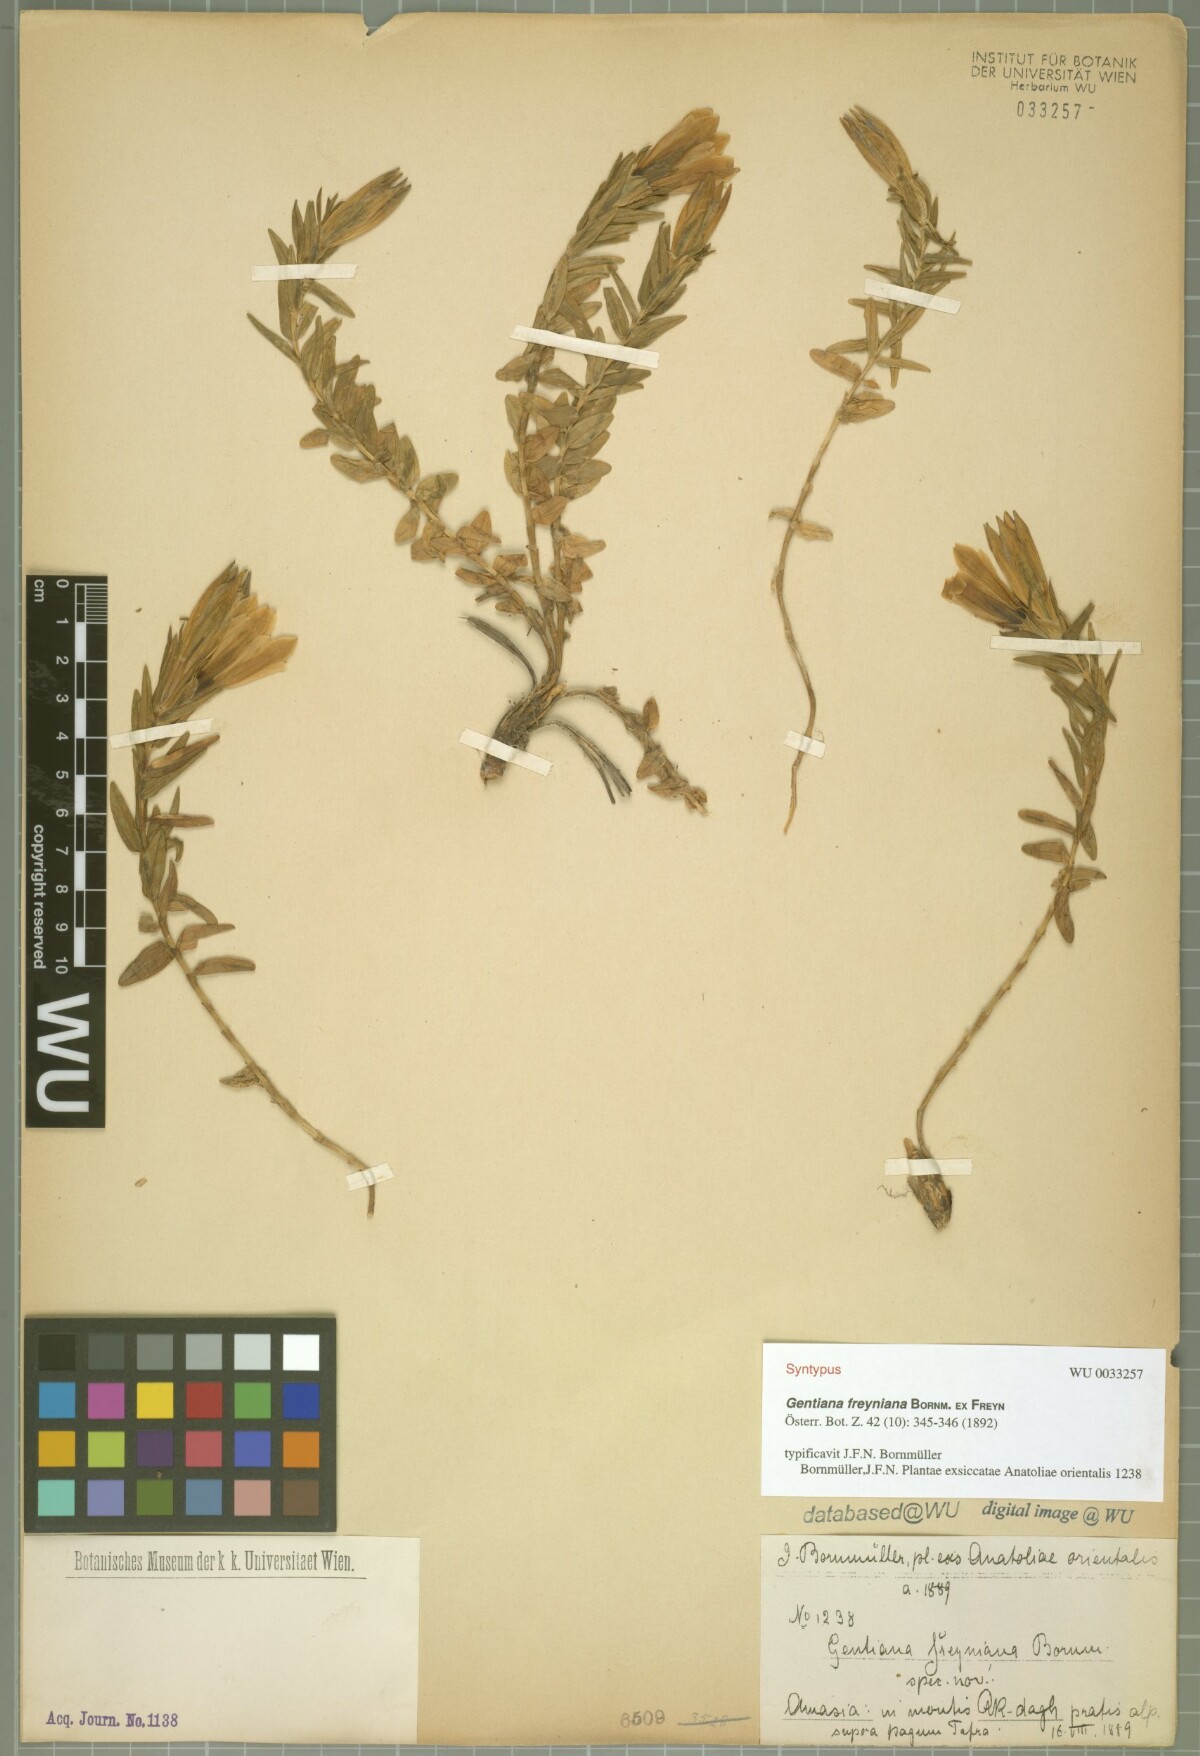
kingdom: Plantae
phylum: Tracheophyta
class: Magnoliopsida
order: Gentianales
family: Gentianaceae
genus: Gentiana
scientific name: Gentiana septemfida
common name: Crested gentian
